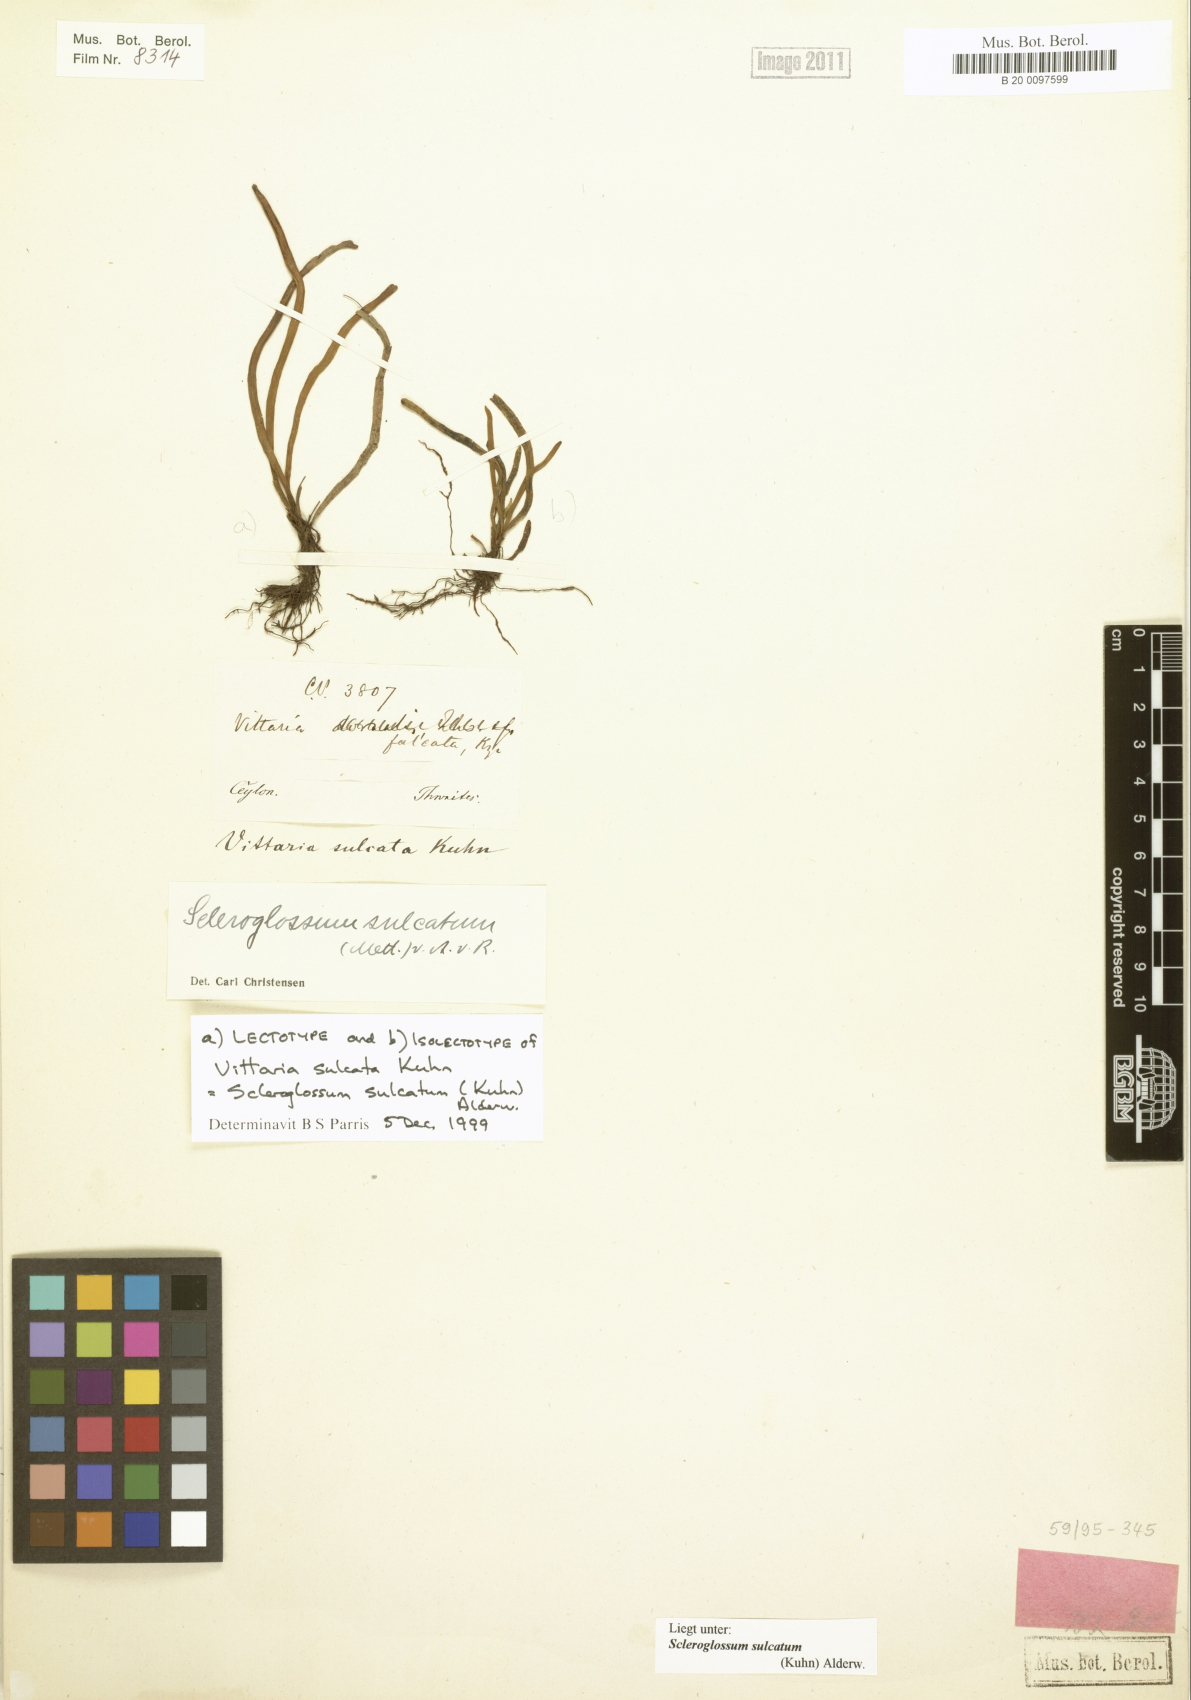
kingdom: Plantae
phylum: Tracheophyta
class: Polypodiopsida
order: Polypodiales
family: Polypodiaceae
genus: Scleroglossum
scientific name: Scleroglossum sulcatum
